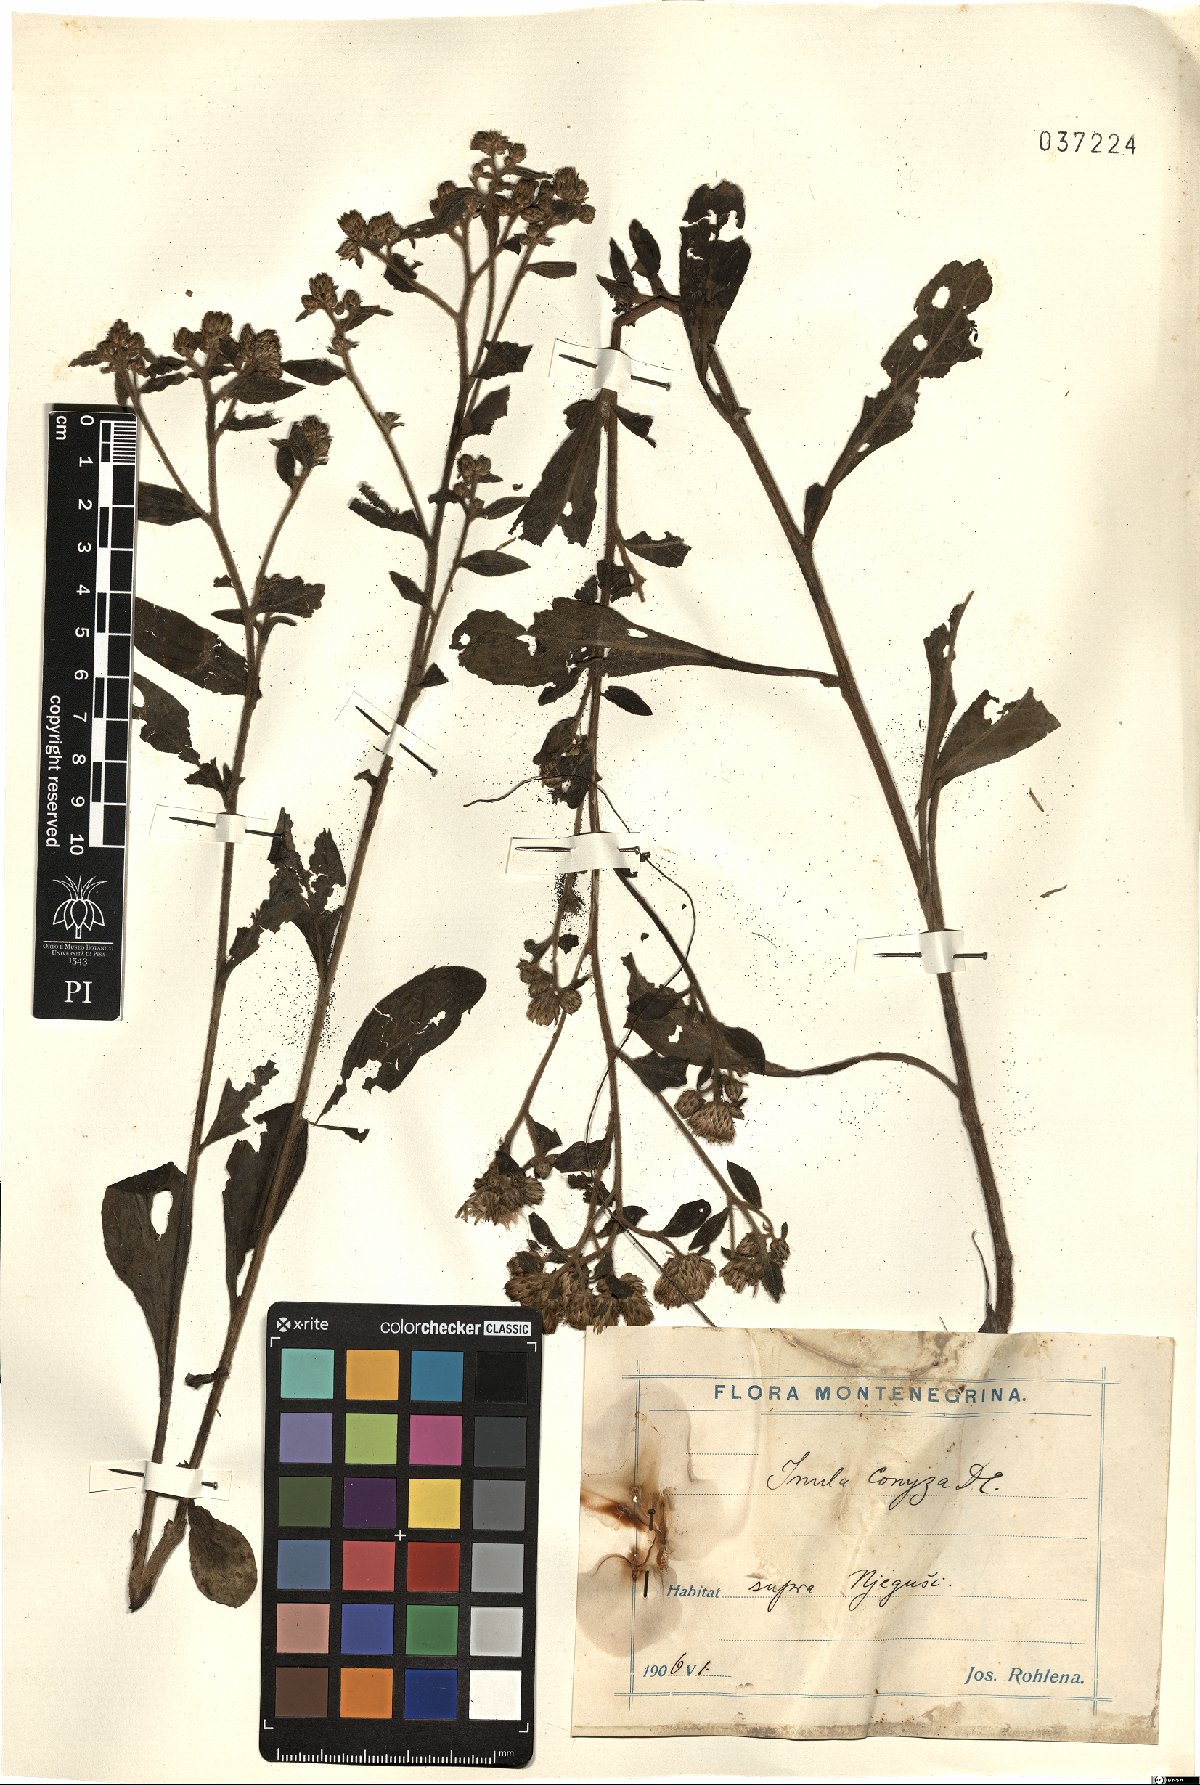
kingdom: Plantae
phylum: Tracheophyta
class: Magnoliopsida
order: Asterales
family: Asteraceae
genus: Pentanema
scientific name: Pentanema squarrosum
